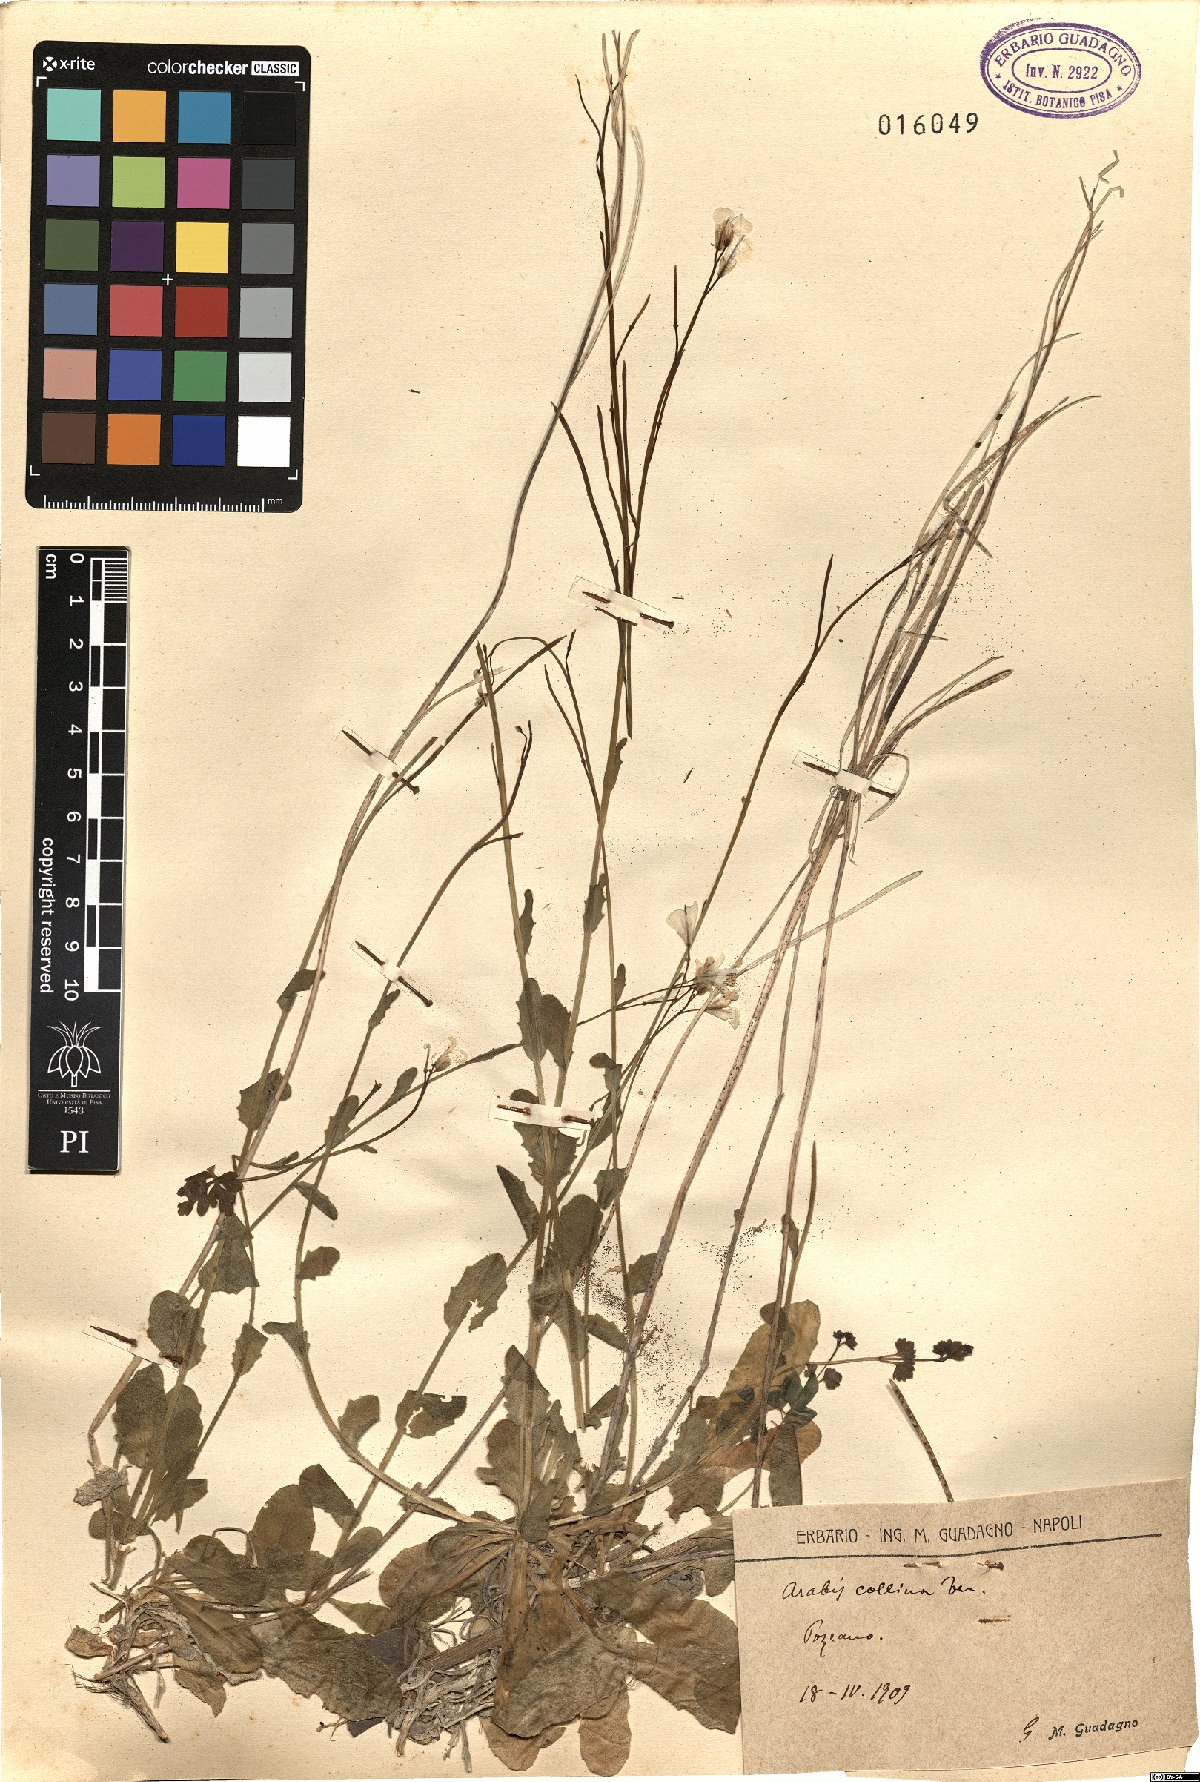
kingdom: Plantae
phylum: Tracheophyta
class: Magnoliopsida
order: Brassicales
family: Brassicaceae
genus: Arabis
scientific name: Arabis collina
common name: Rosy cress
